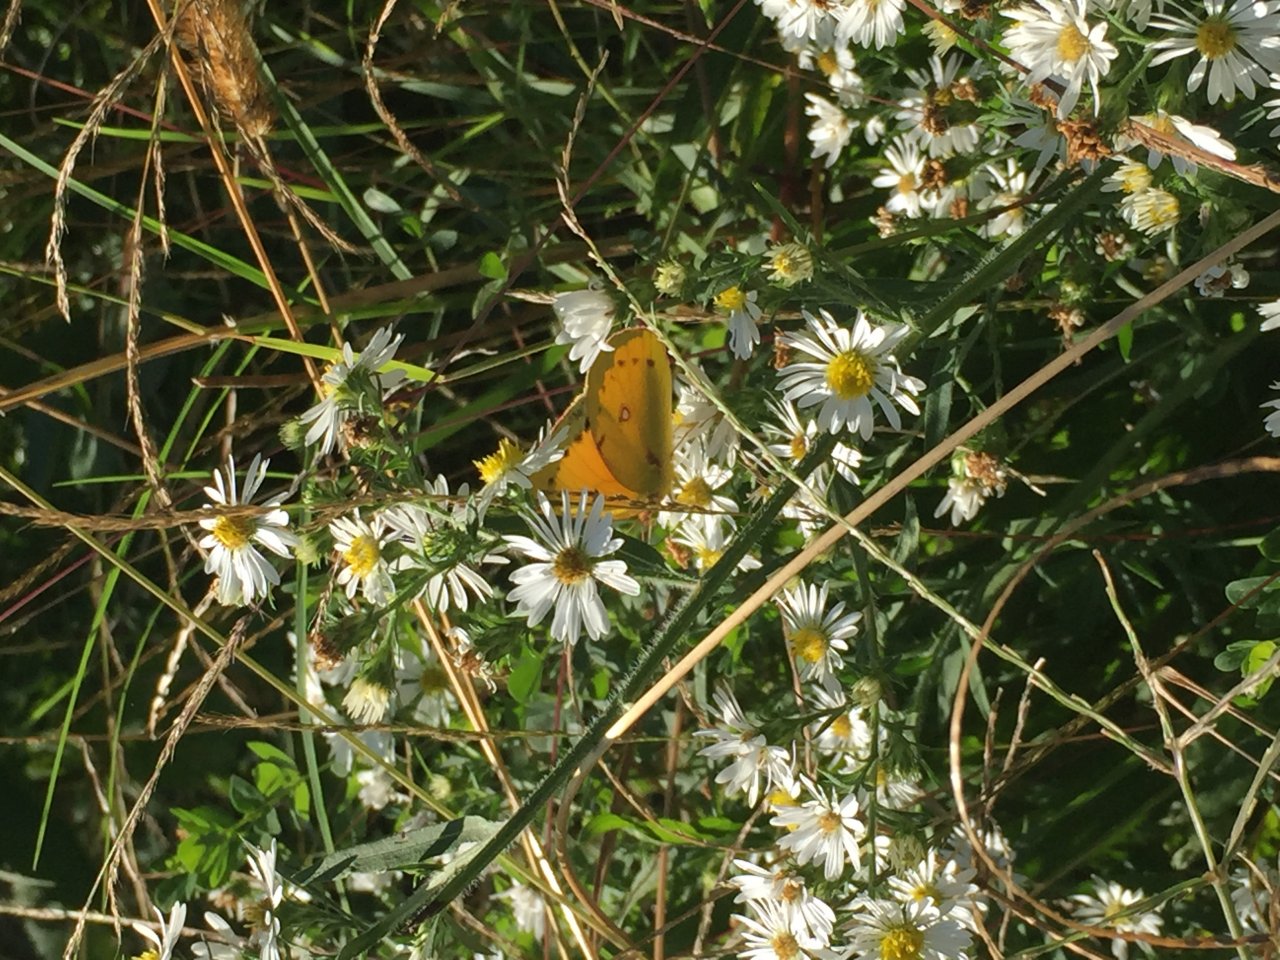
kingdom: Animalia
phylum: Arthropoda
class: Insecta
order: Lepidoptera
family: Pieridae
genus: Colias
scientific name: Colias eurytheme
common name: Orange Sulphur
